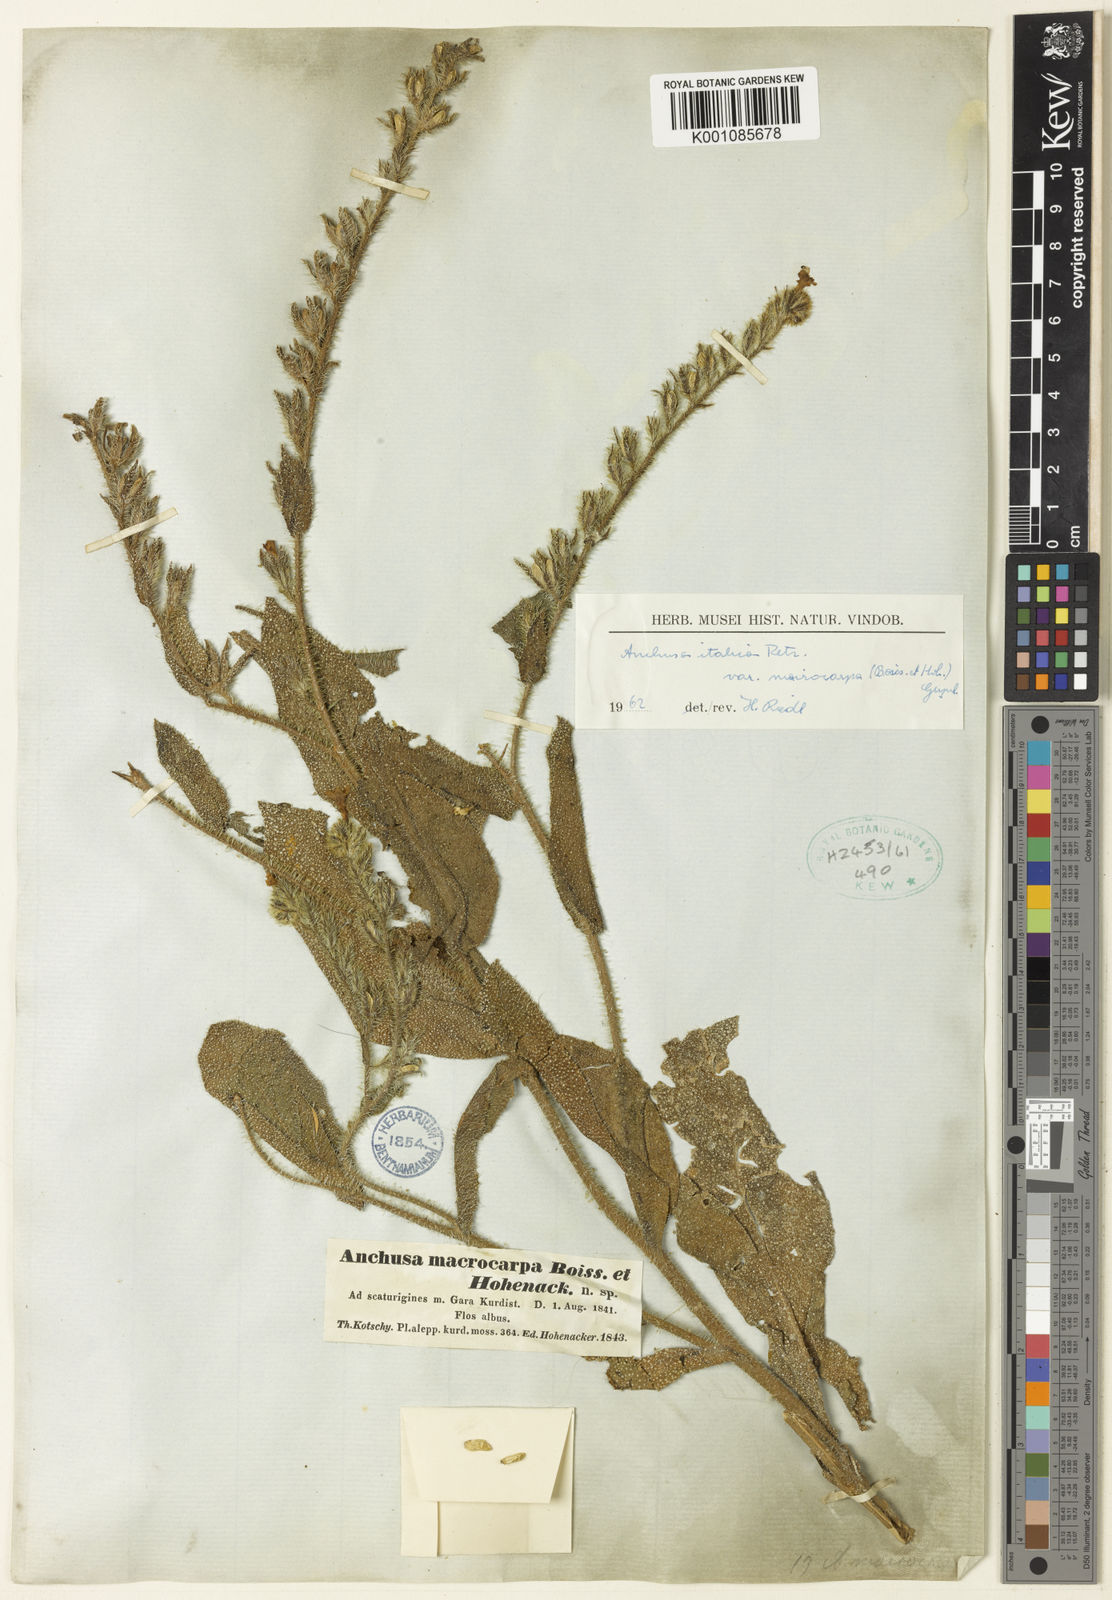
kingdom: Plantae
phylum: Tracheophyta
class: Magnoliopsida
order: Boraginales
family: Boraginaceae
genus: Anchusa
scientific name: Anchusa azurea
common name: Garden anchusa
